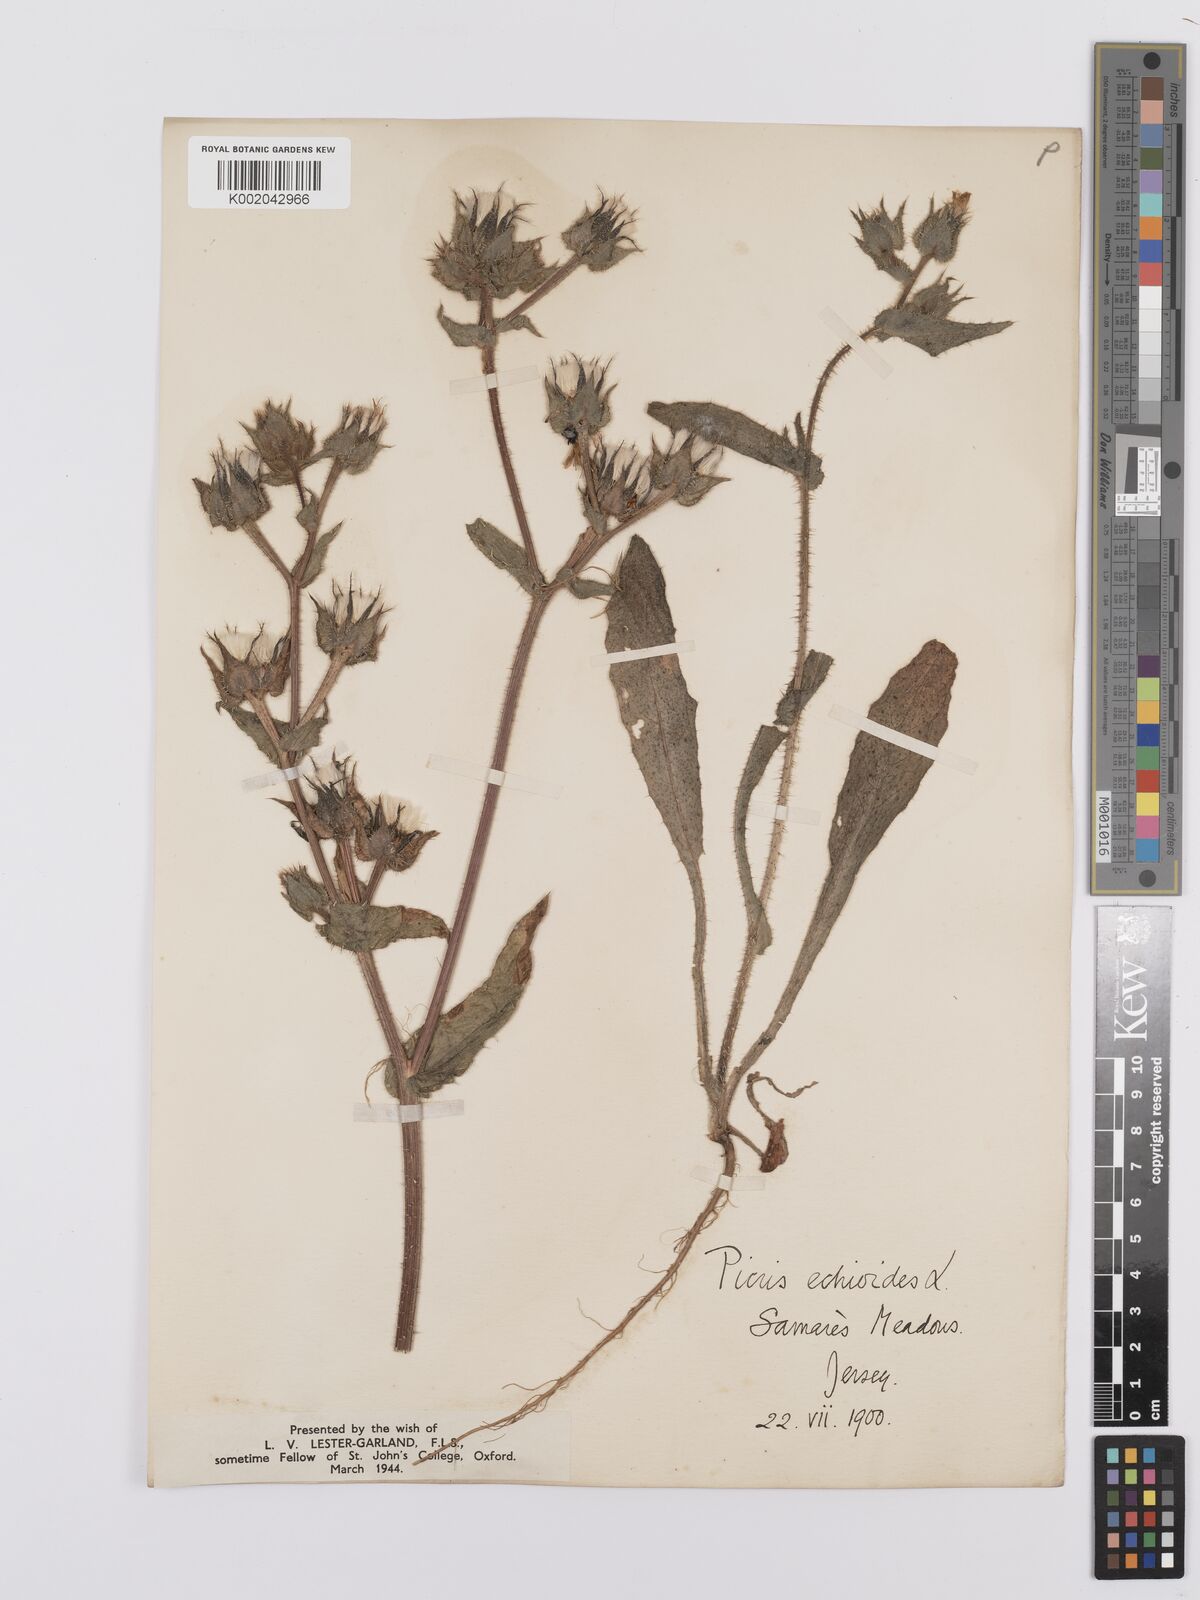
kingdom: Plantae
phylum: Tracheophyta
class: Magnoliopsida
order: Asterales
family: Asteraceae
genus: Helminthotheca
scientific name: Helminthotheca echioides
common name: Ox-tongue
